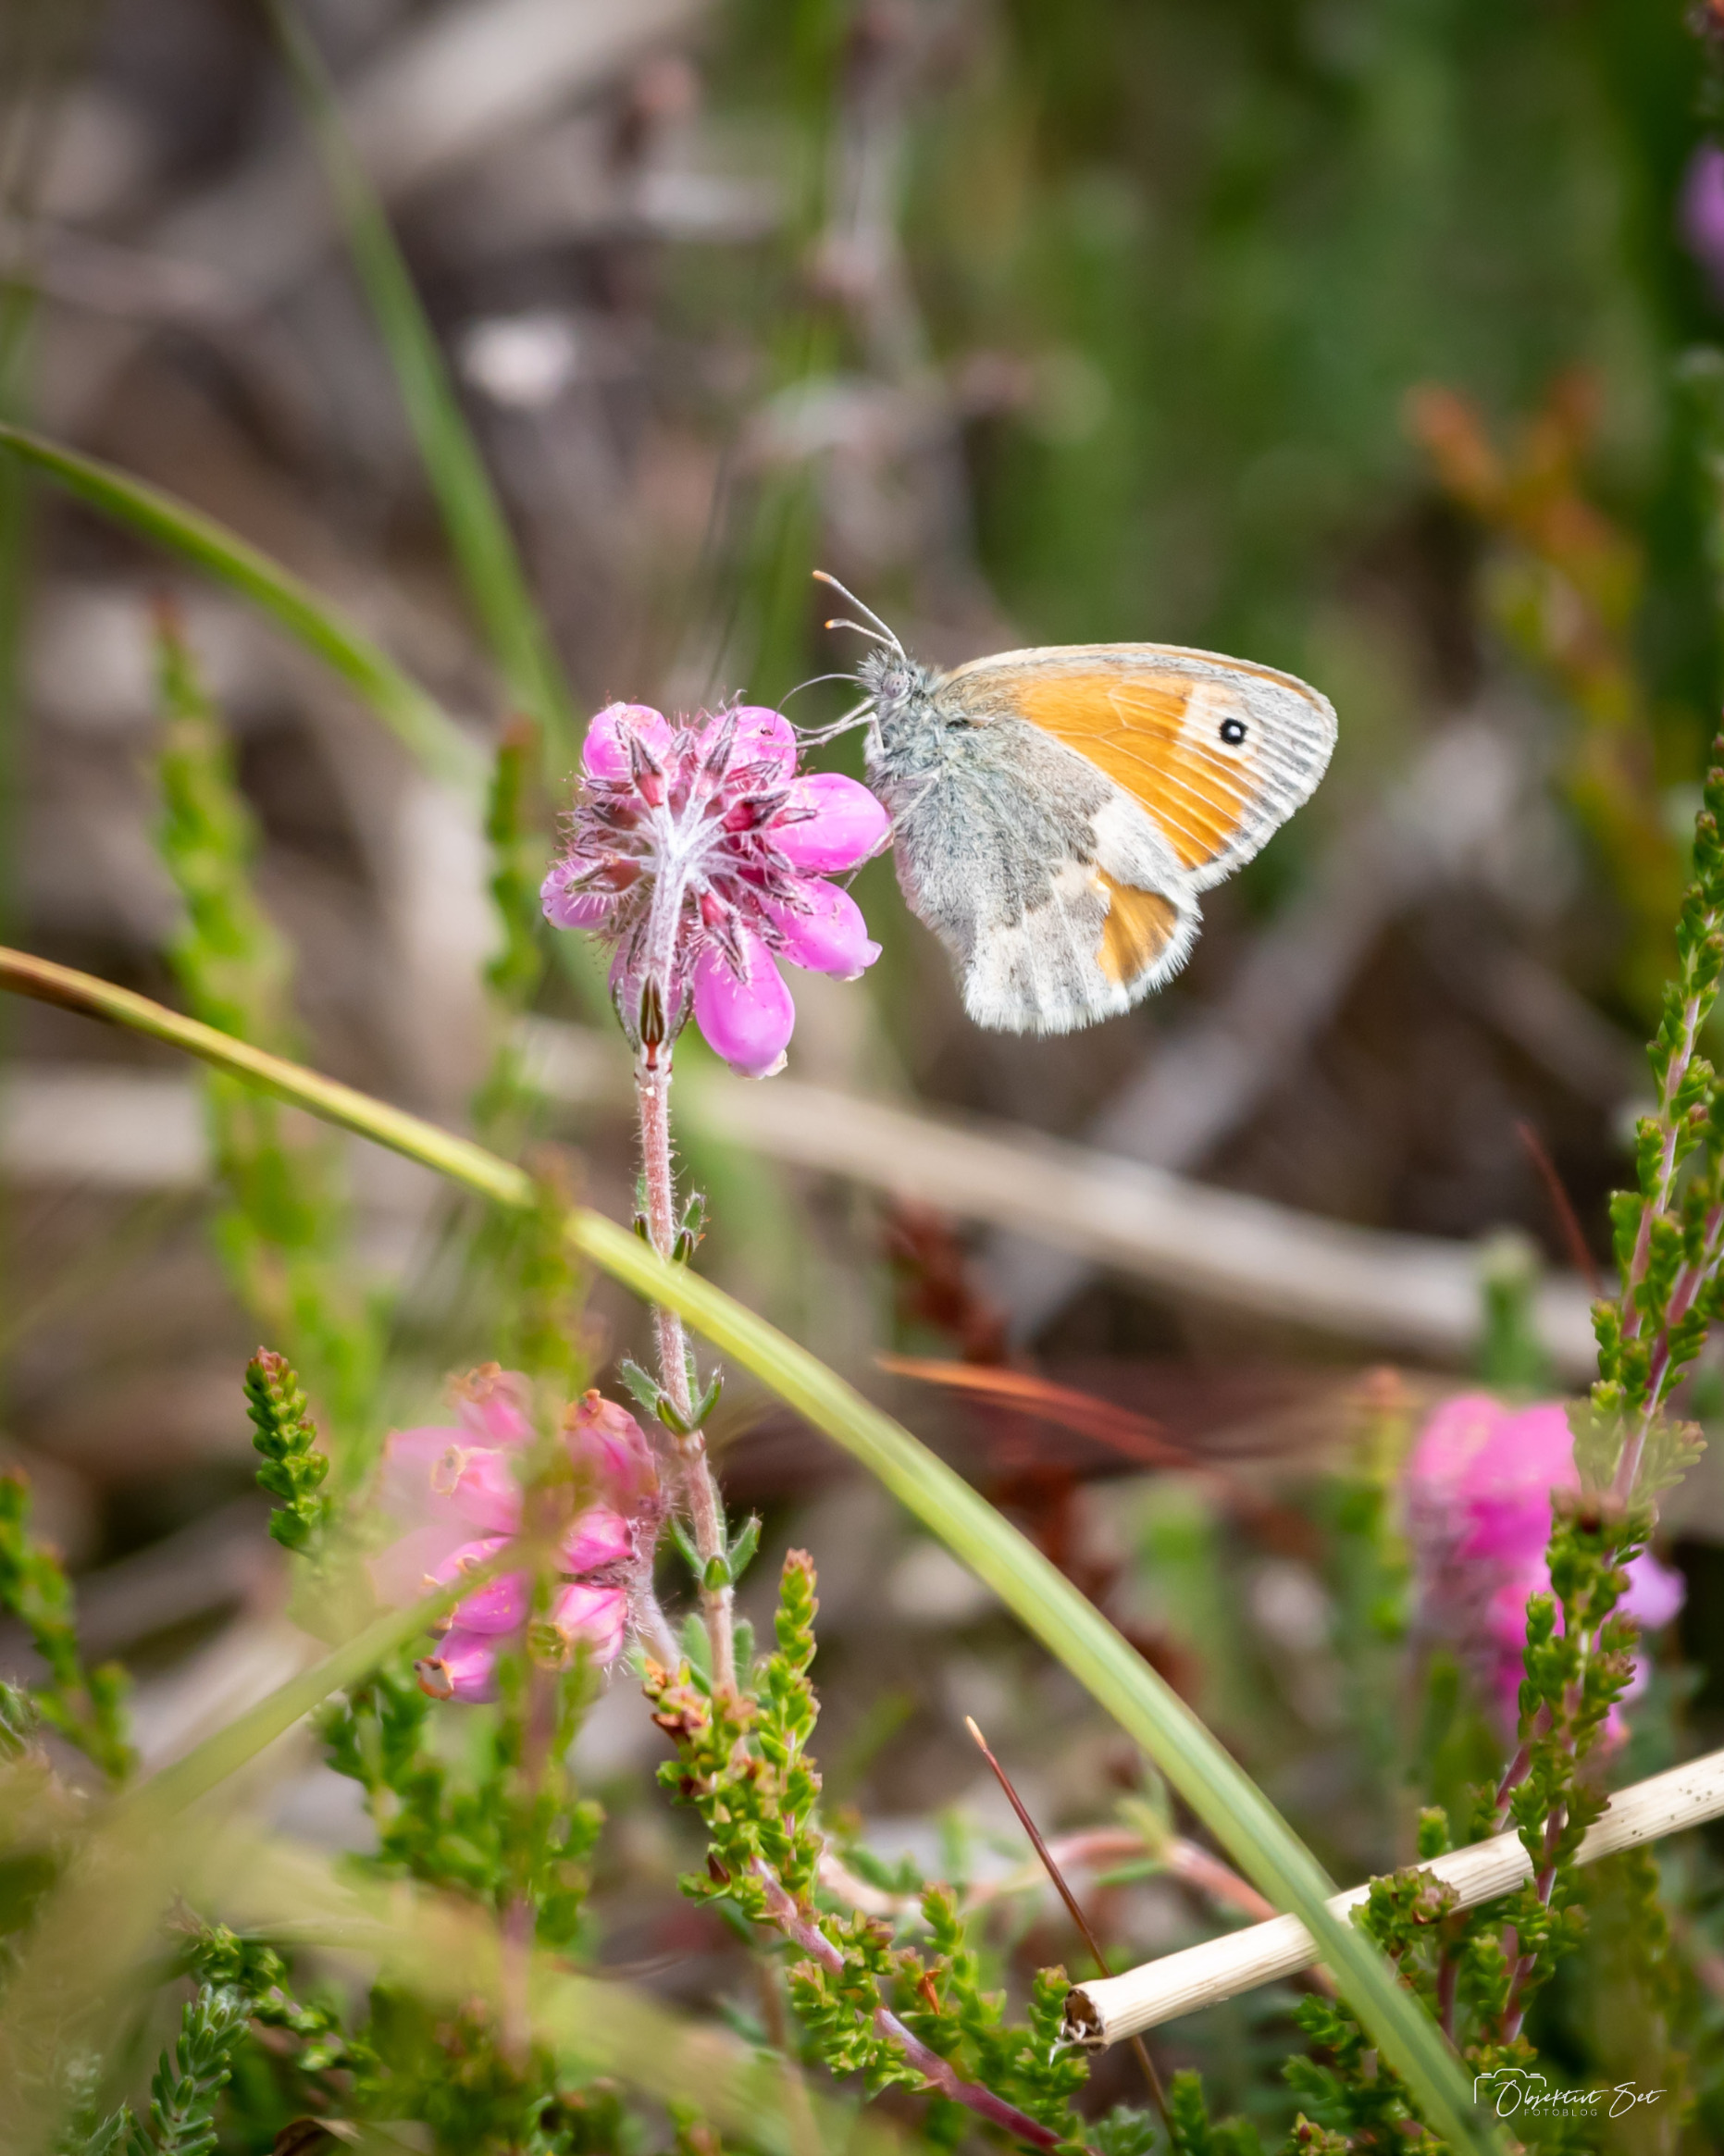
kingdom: Animalia
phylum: Arthropoda
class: Insecta
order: Lepidoptera
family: Nymphalidae
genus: Coenonympha
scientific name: Coenonympha pamphilus
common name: Okkergul randøje
